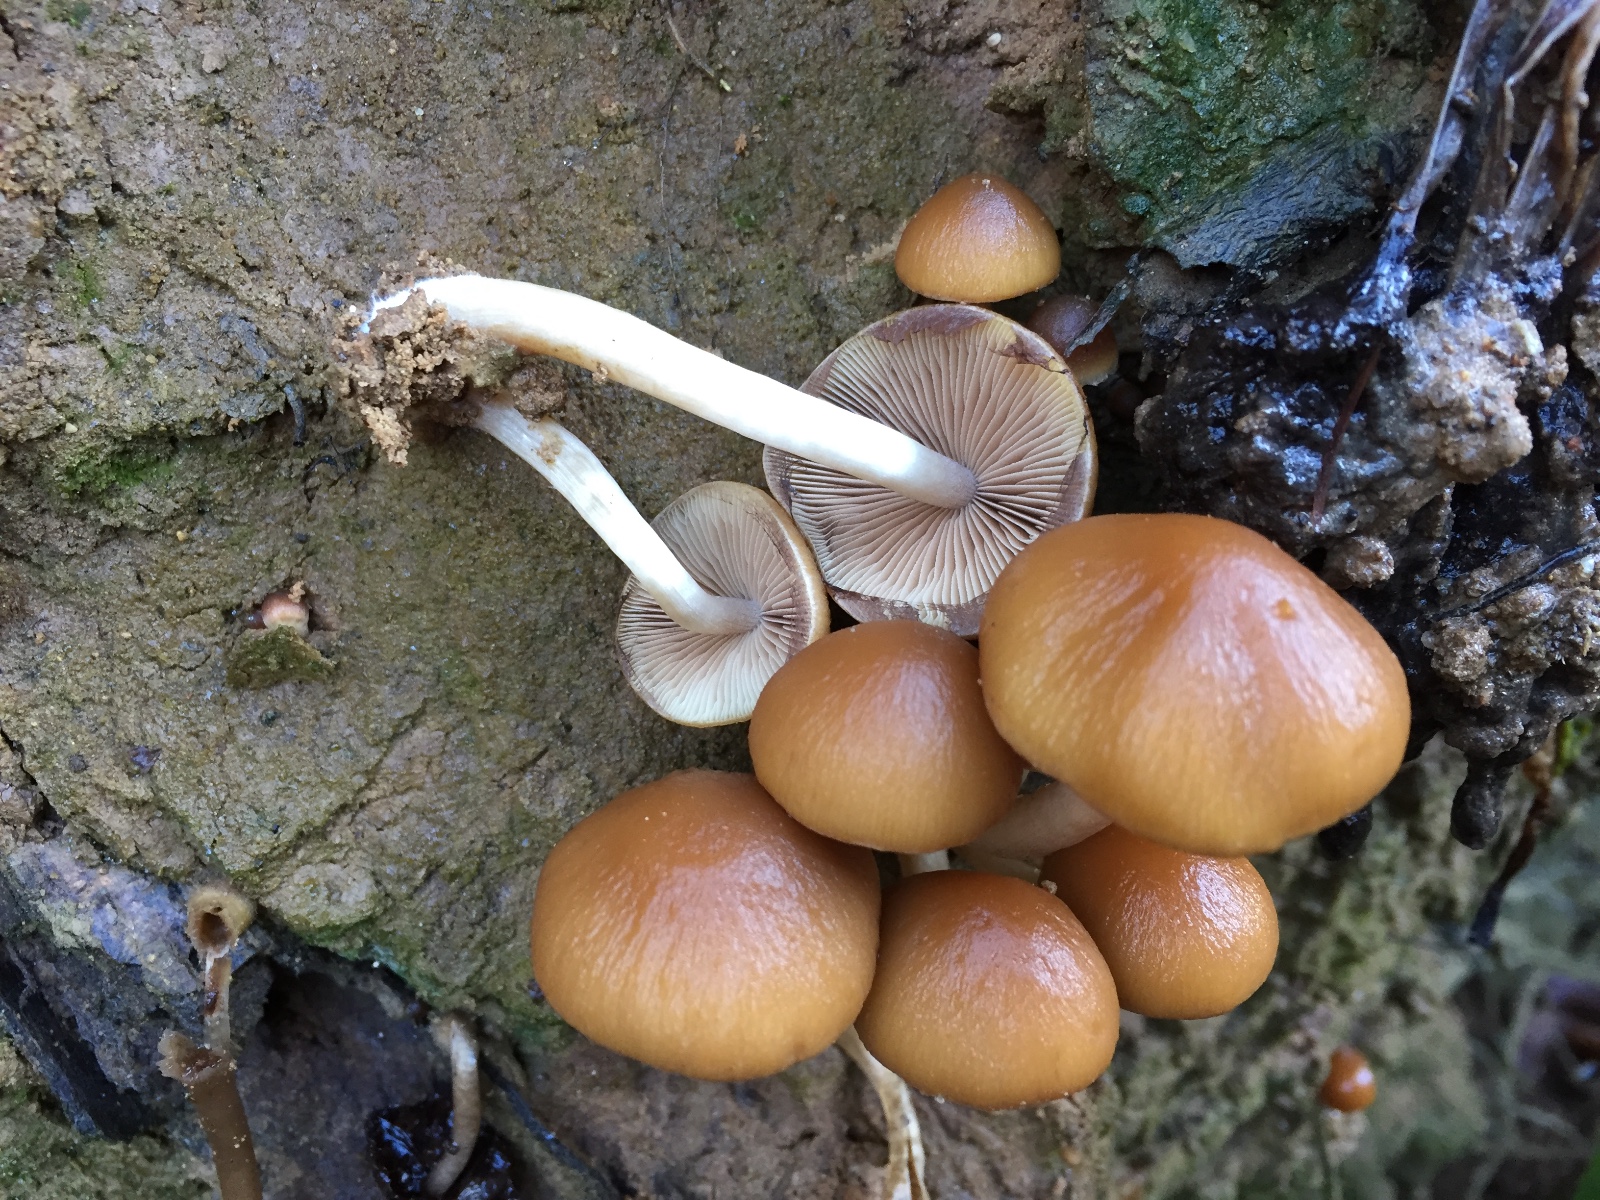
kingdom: Fungi
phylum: Basidiomycota
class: Agaricomycetes
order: Agaricales
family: Psathyrellaceae
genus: Psathyrella
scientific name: Psathyrella piluliformis
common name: lysstokket mørkhat
